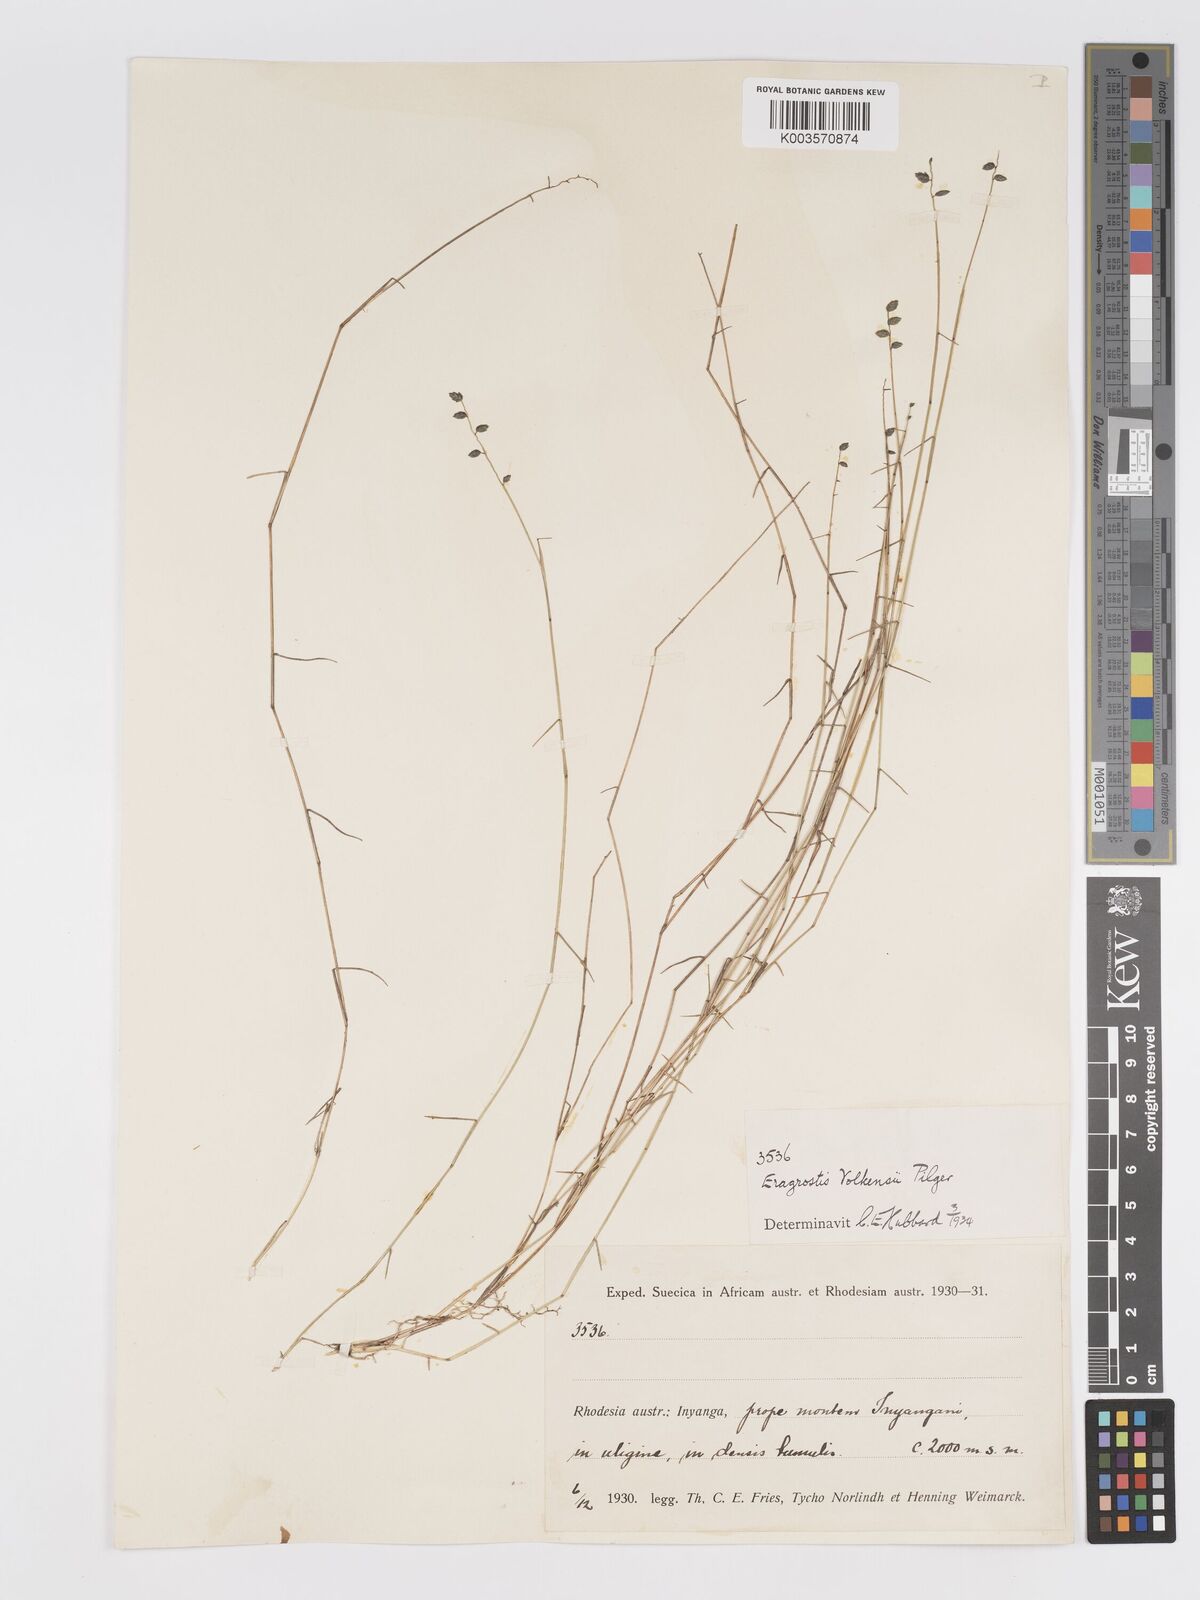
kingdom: Plantae
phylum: Tracheophyta
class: Liliopsida
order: Poales
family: Poaceae
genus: Eragrostis
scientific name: Eragrostis volkensii
